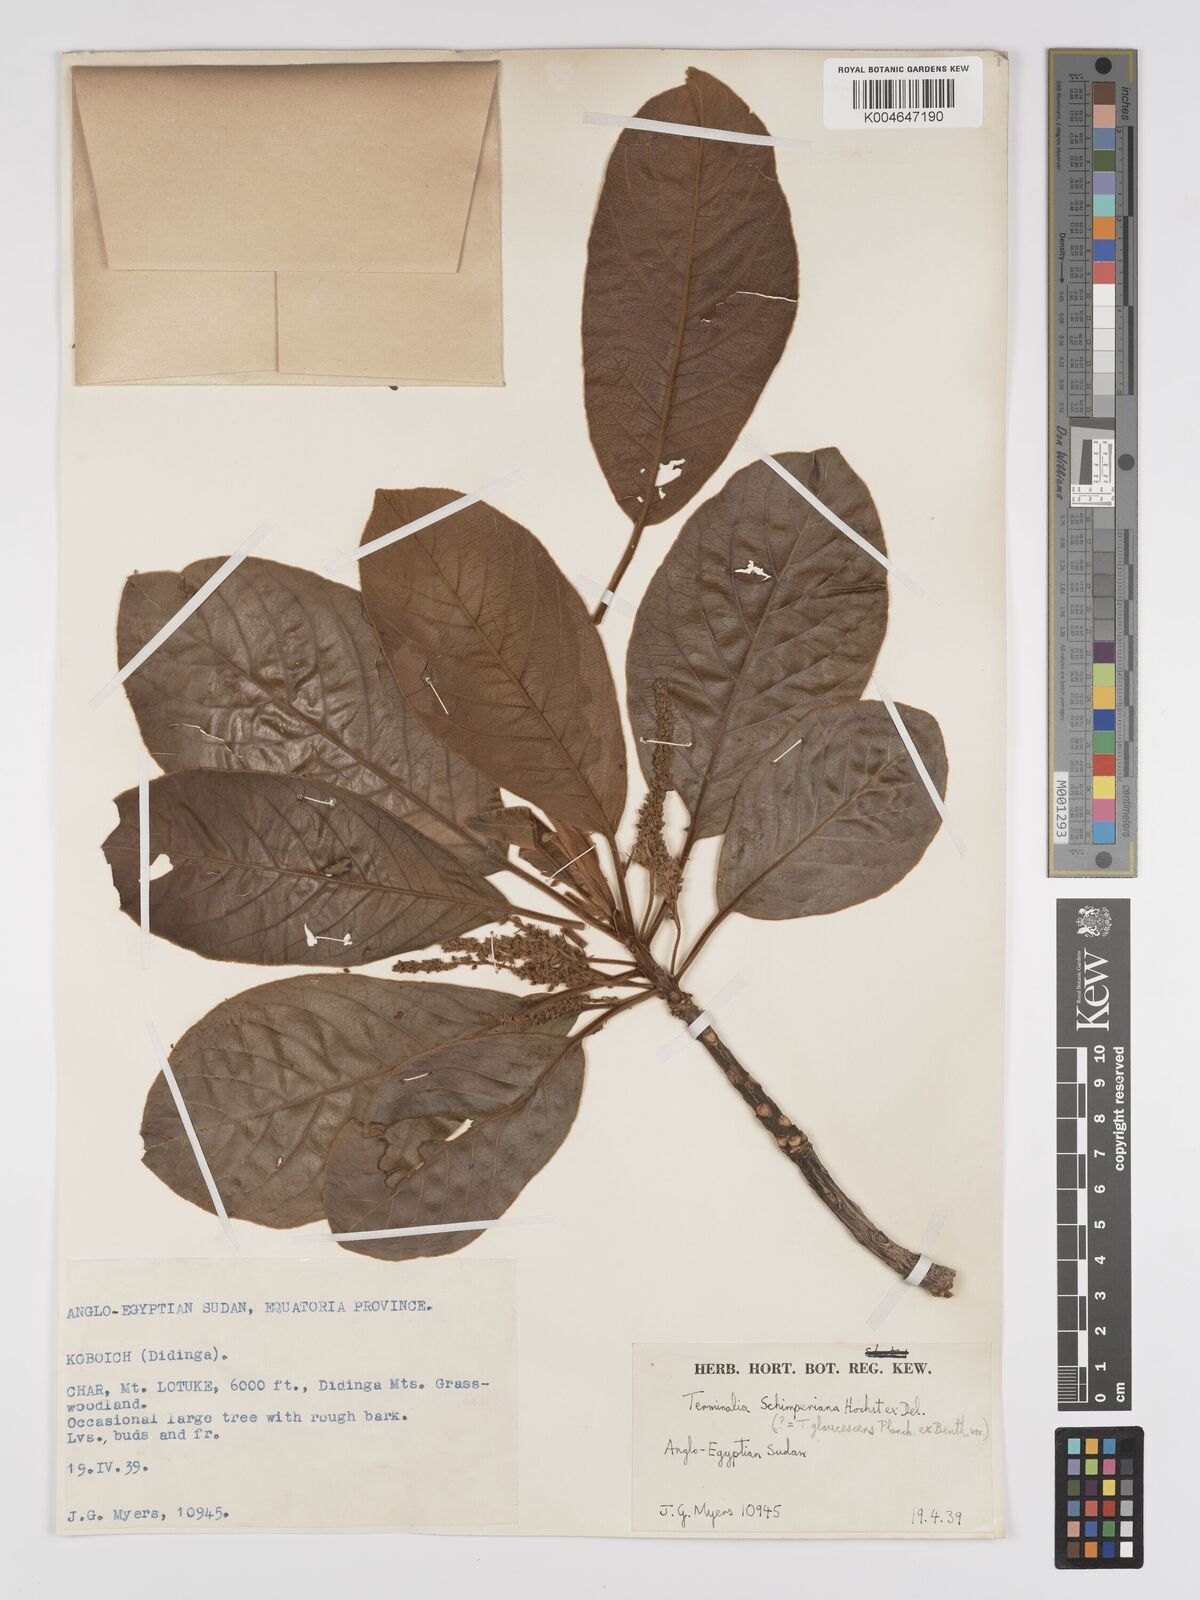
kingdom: Plantae
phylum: Tracheophyta
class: Magnoliopsida
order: Myrtales
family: Combretaceae
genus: Terminalia
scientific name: Terminalia schimperiana
